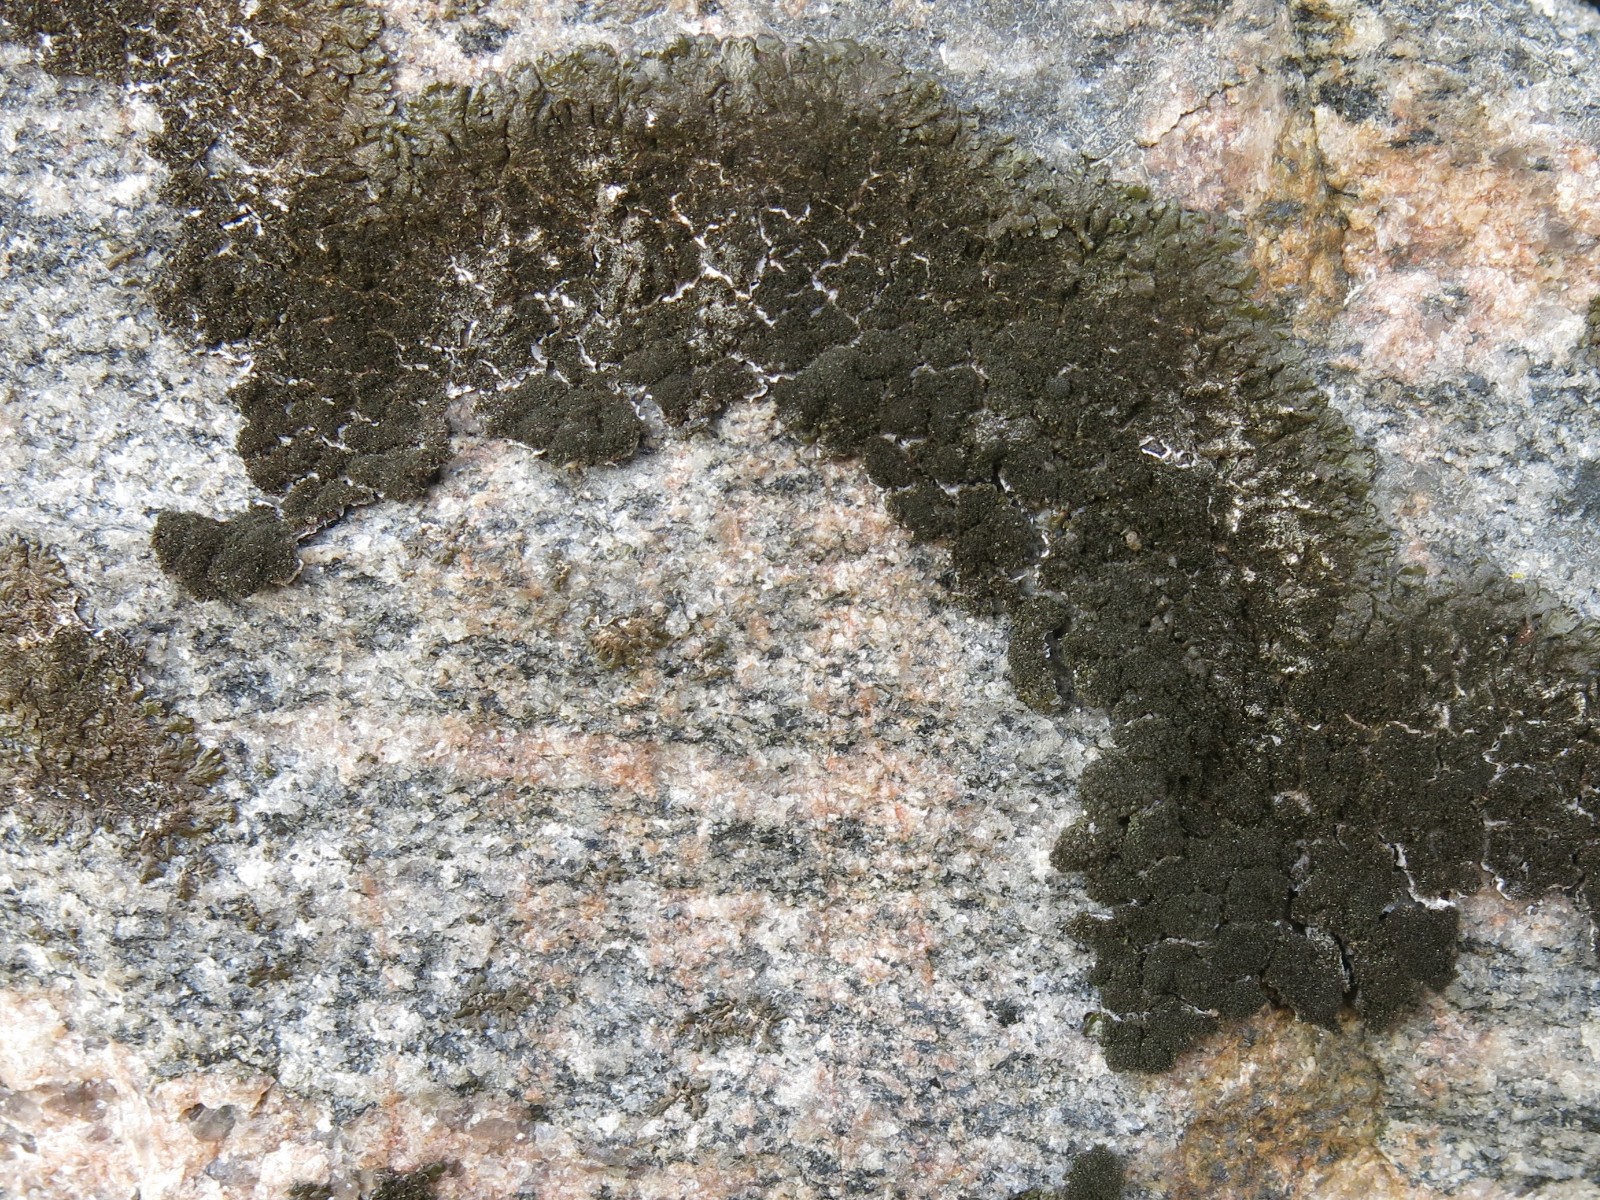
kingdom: Fungi
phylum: Ascomycota
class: Lecanoromycetes
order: Lecanorales
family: Parmeliaceae
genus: Melanelixia
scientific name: Melanelixia fuliginosa
